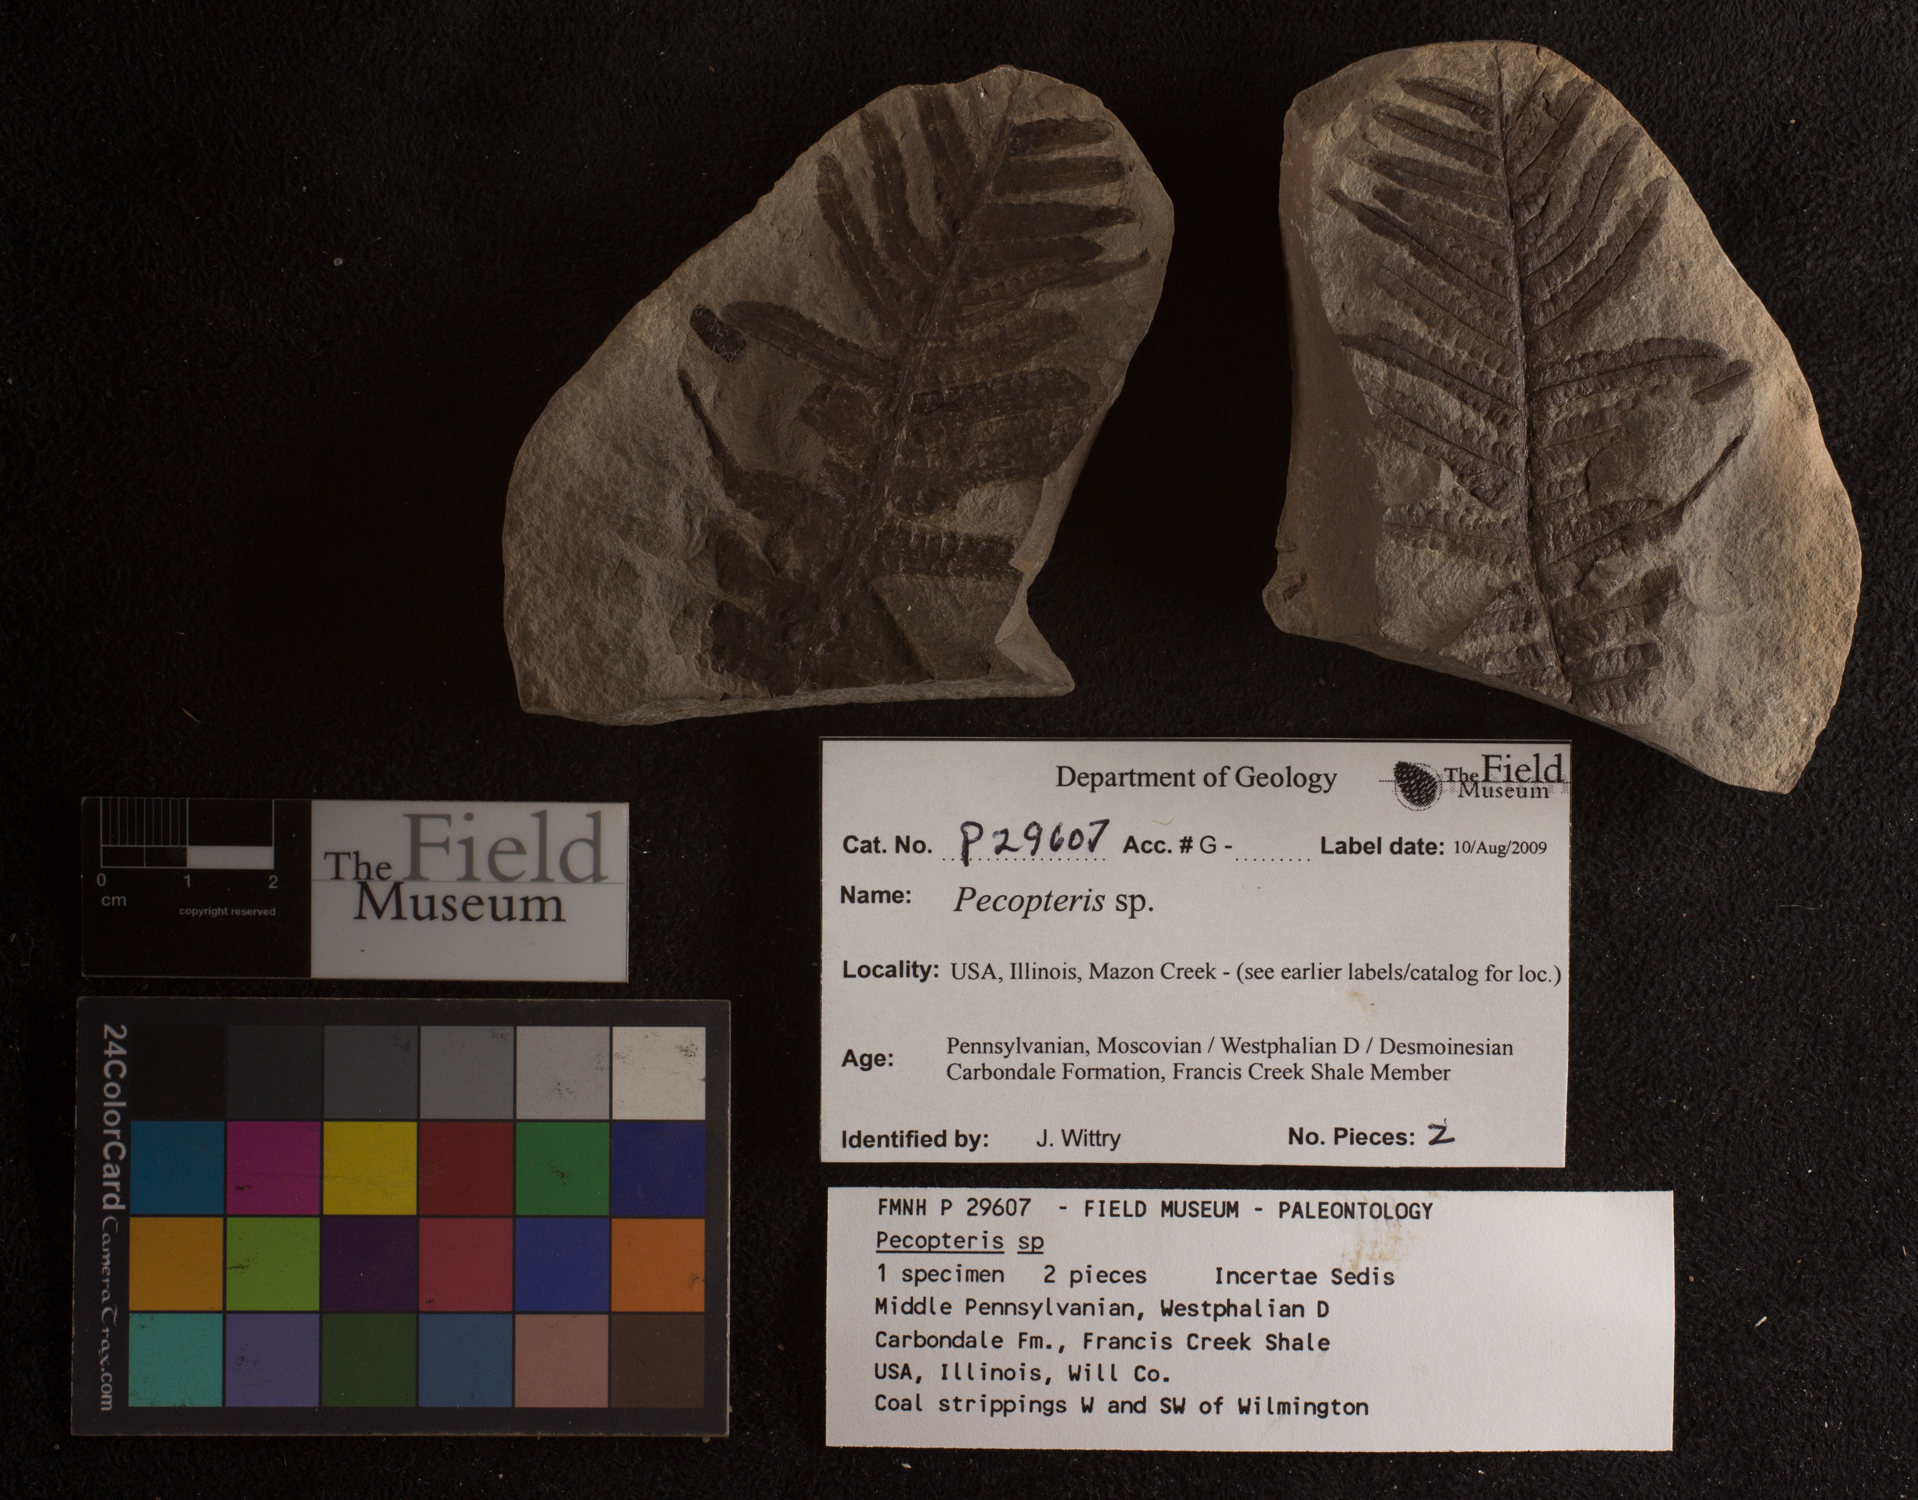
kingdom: Plantae
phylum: Tracheophyta
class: Polypodiopsida
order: Marattiales
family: Asterothecaceae
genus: Pecopteris
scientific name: Pecopteris
